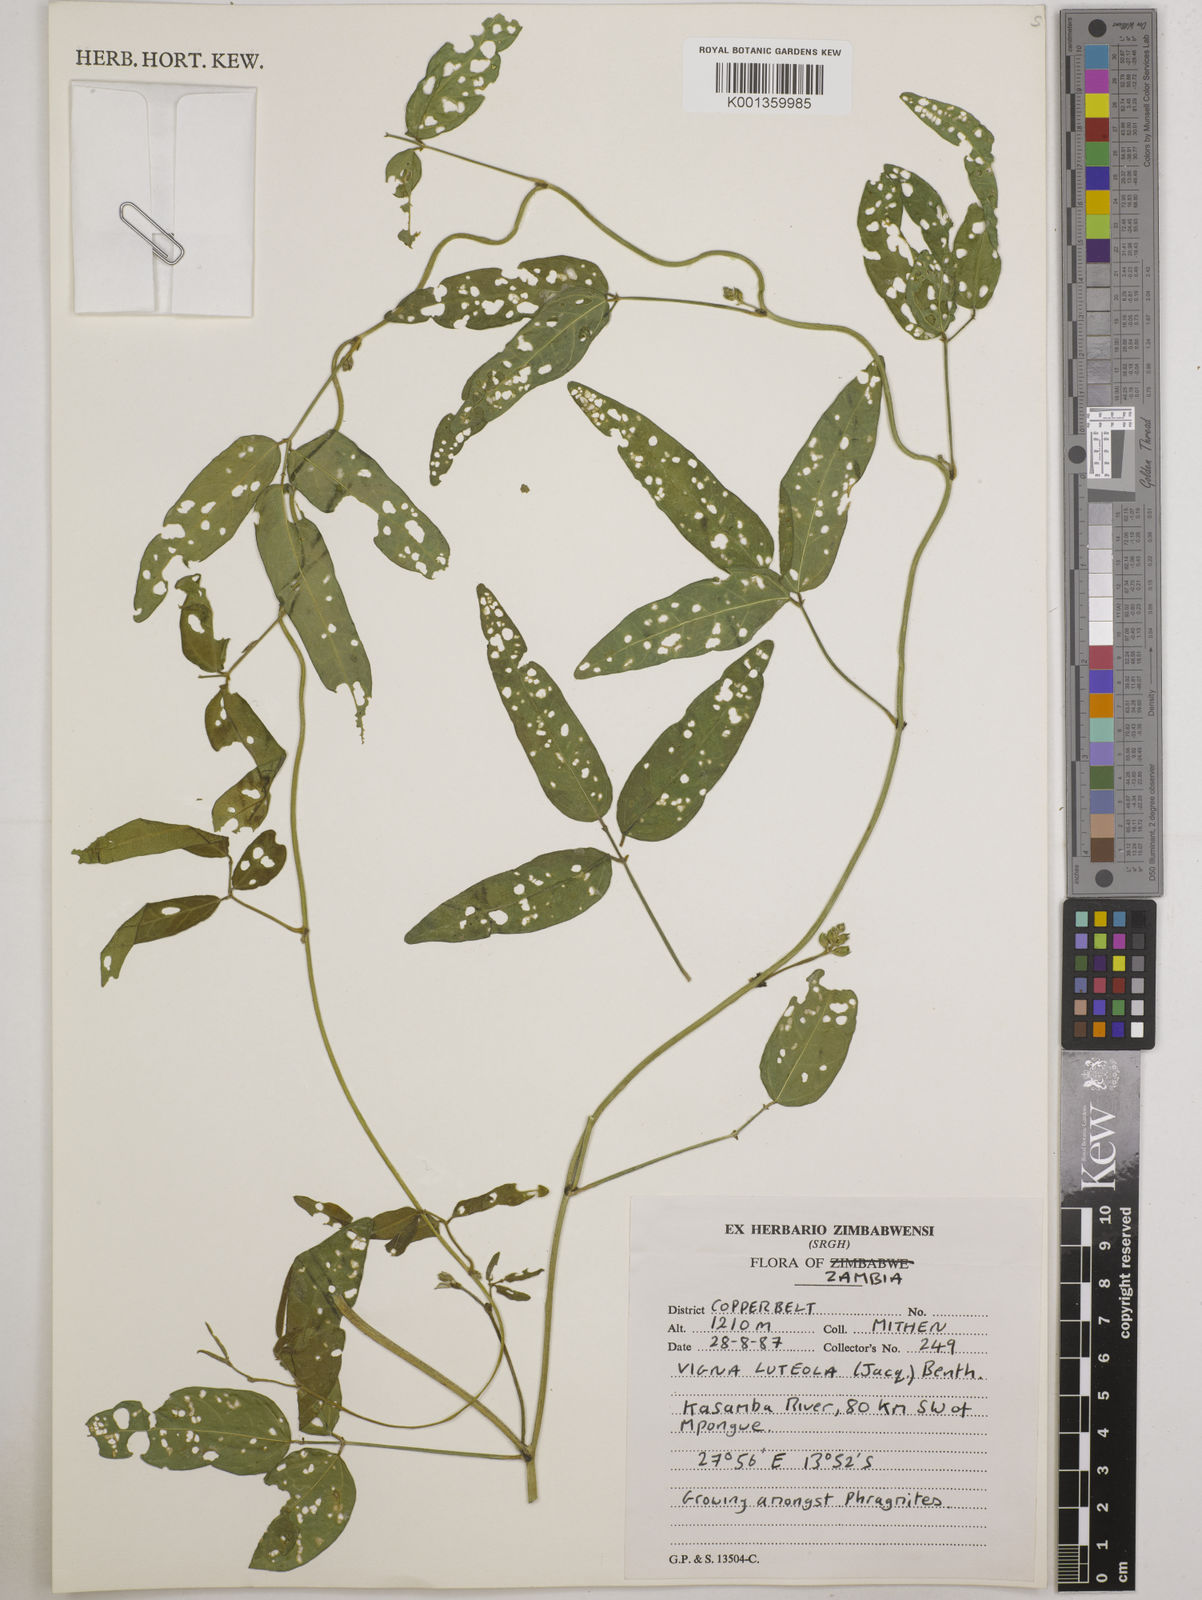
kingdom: Plantae
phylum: Tracheophyta
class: Magnoliopsida
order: Fabales
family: Fabaceae
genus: Vigna
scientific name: Vigna luteola
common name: Hairypod cowpea
